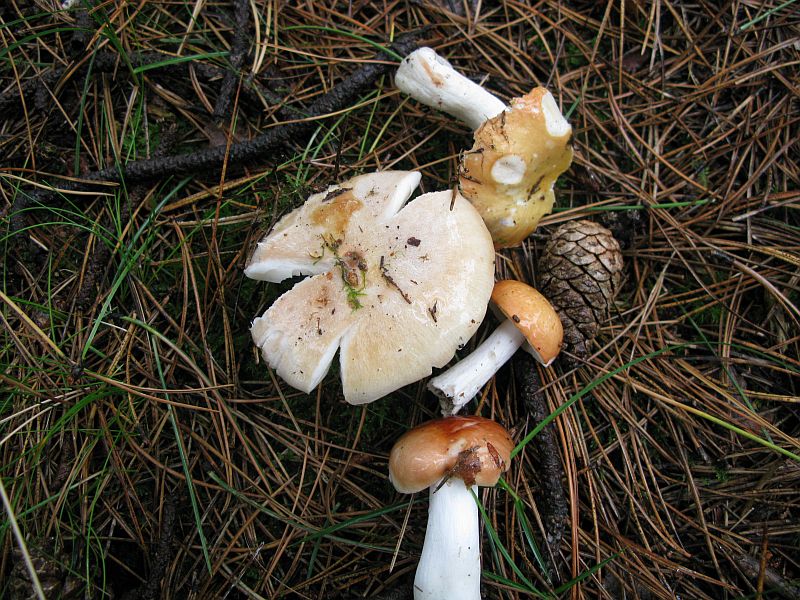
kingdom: Fungi
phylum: Basidiomycota
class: Agaricomycetes
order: Russulales
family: Russulaceae
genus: Russula
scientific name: Russula decolorans
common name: afblegende skørhat
